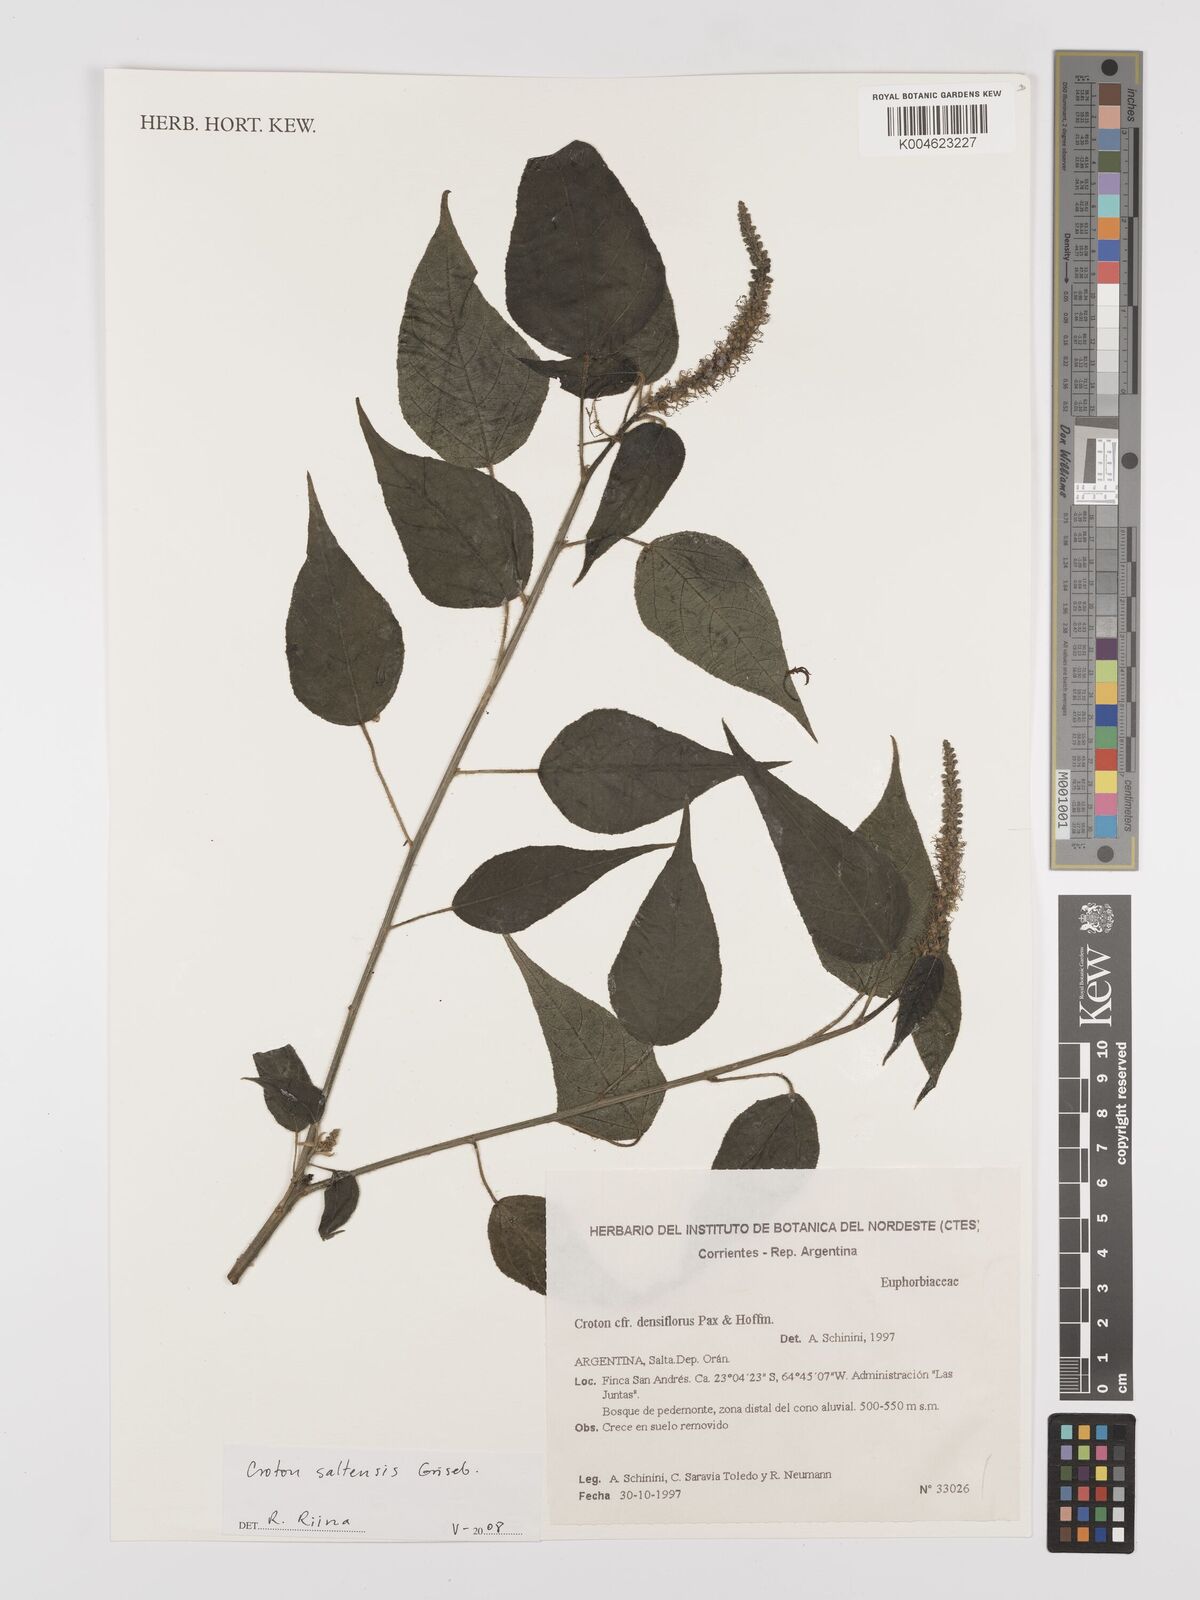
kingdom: Plantae
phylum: Tracheophyta
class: Magnoliopsida
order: Malpighiales
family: Euphorbiaceae
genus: Croton
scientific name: Croton saltensis
